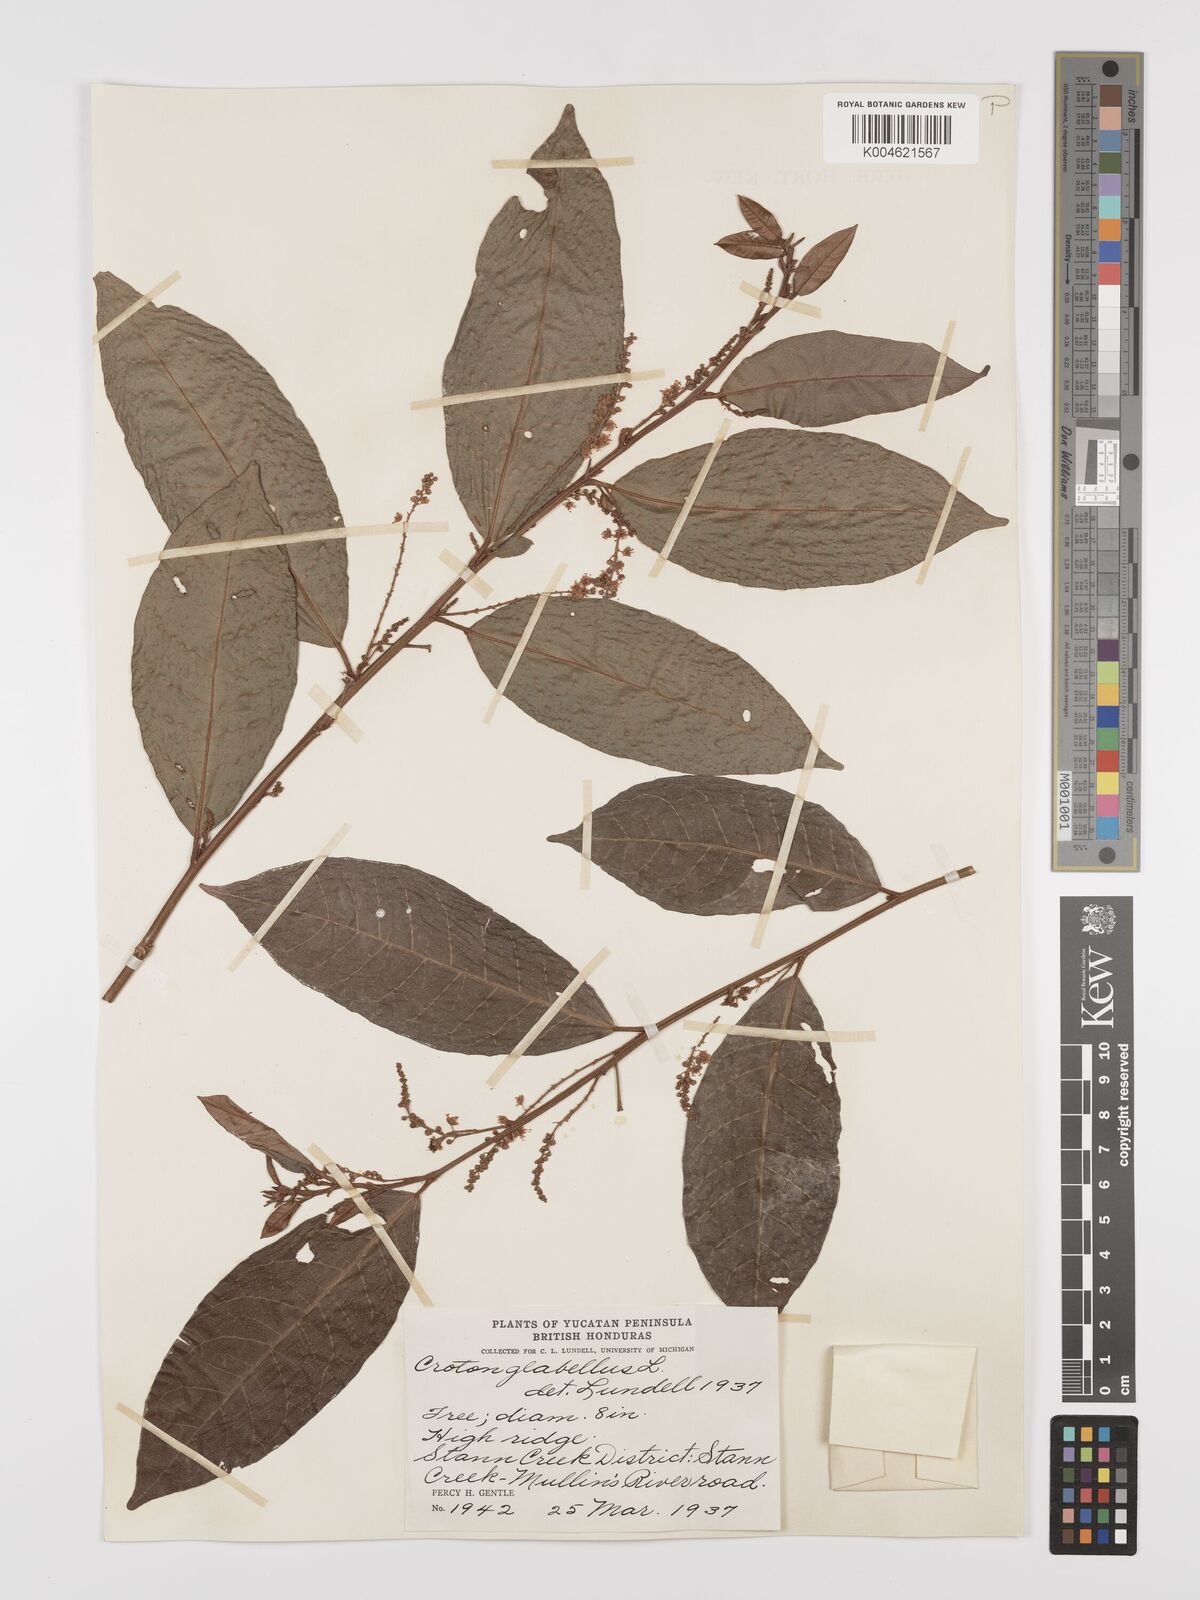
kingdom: Plantae
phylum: Tracheophyta
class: Magnoliopsida
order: Malpighiales
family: Euphorbiaceae
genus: Croton
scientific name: Croton glabellus
